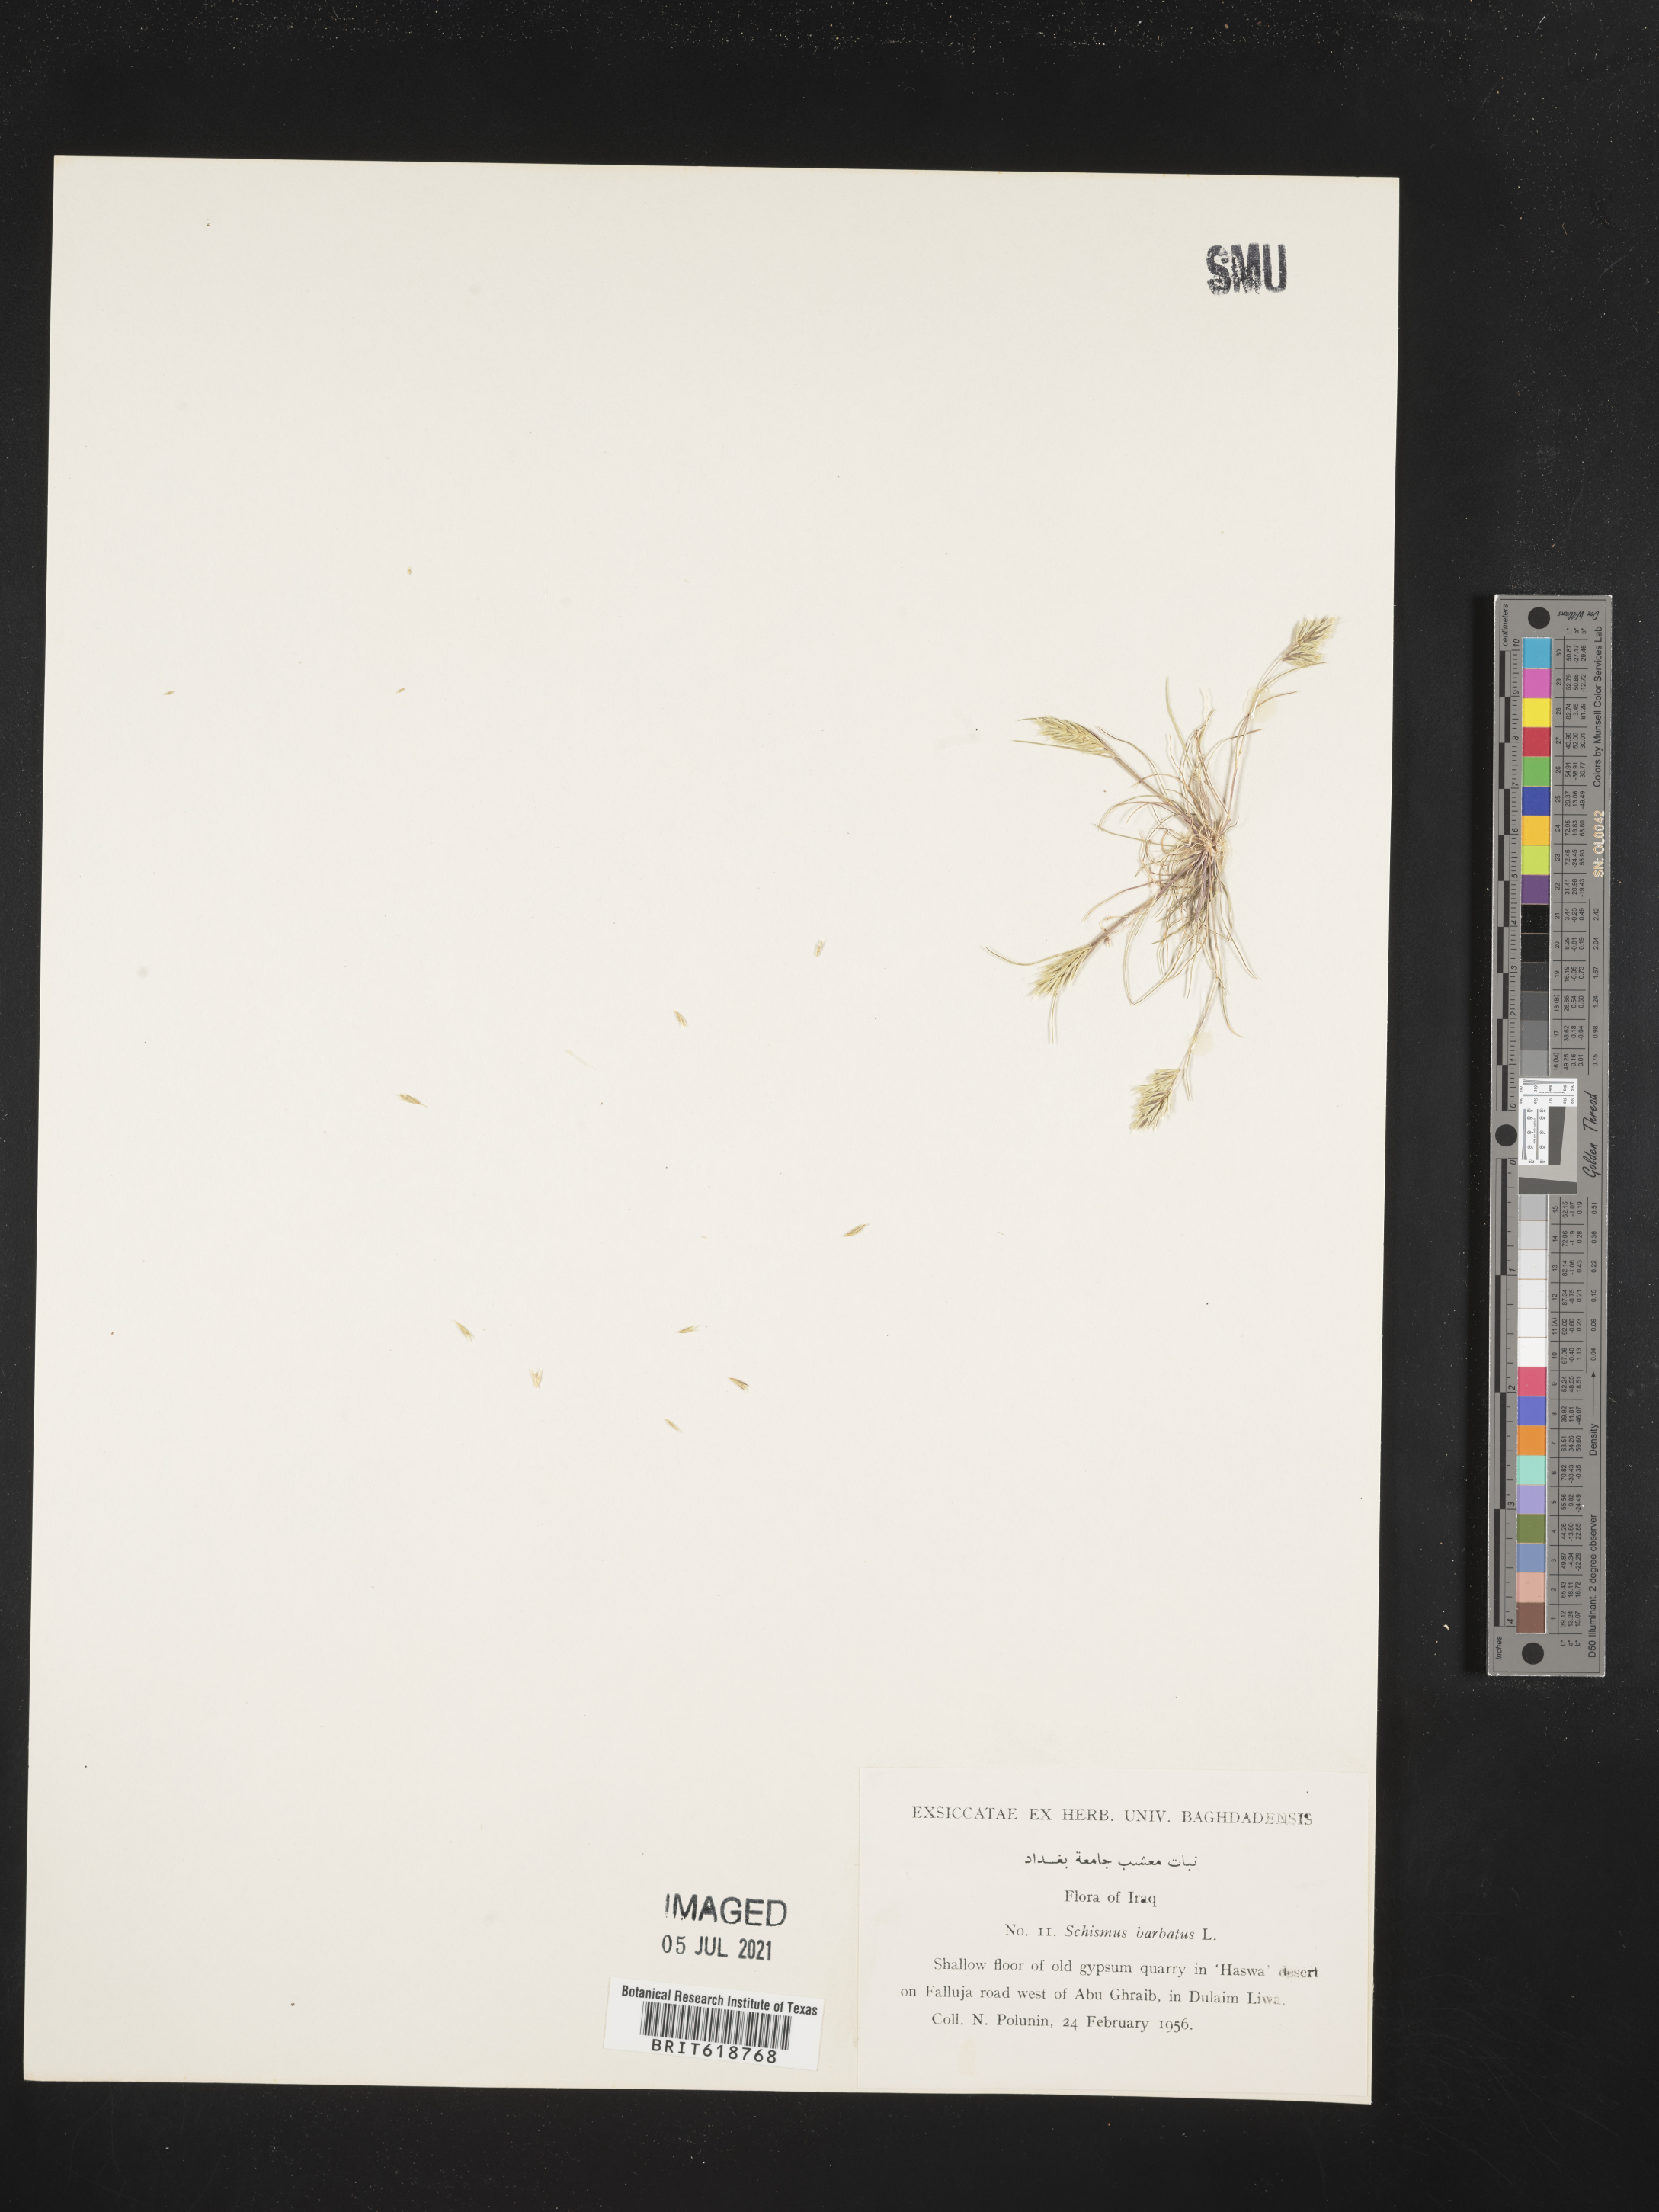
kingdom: Plantae
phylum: Tracheophyta
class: Liliopsida
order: Poales
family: Poaceae
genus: Schismus
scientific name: Schismus barbatus
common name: Kelch-grass
